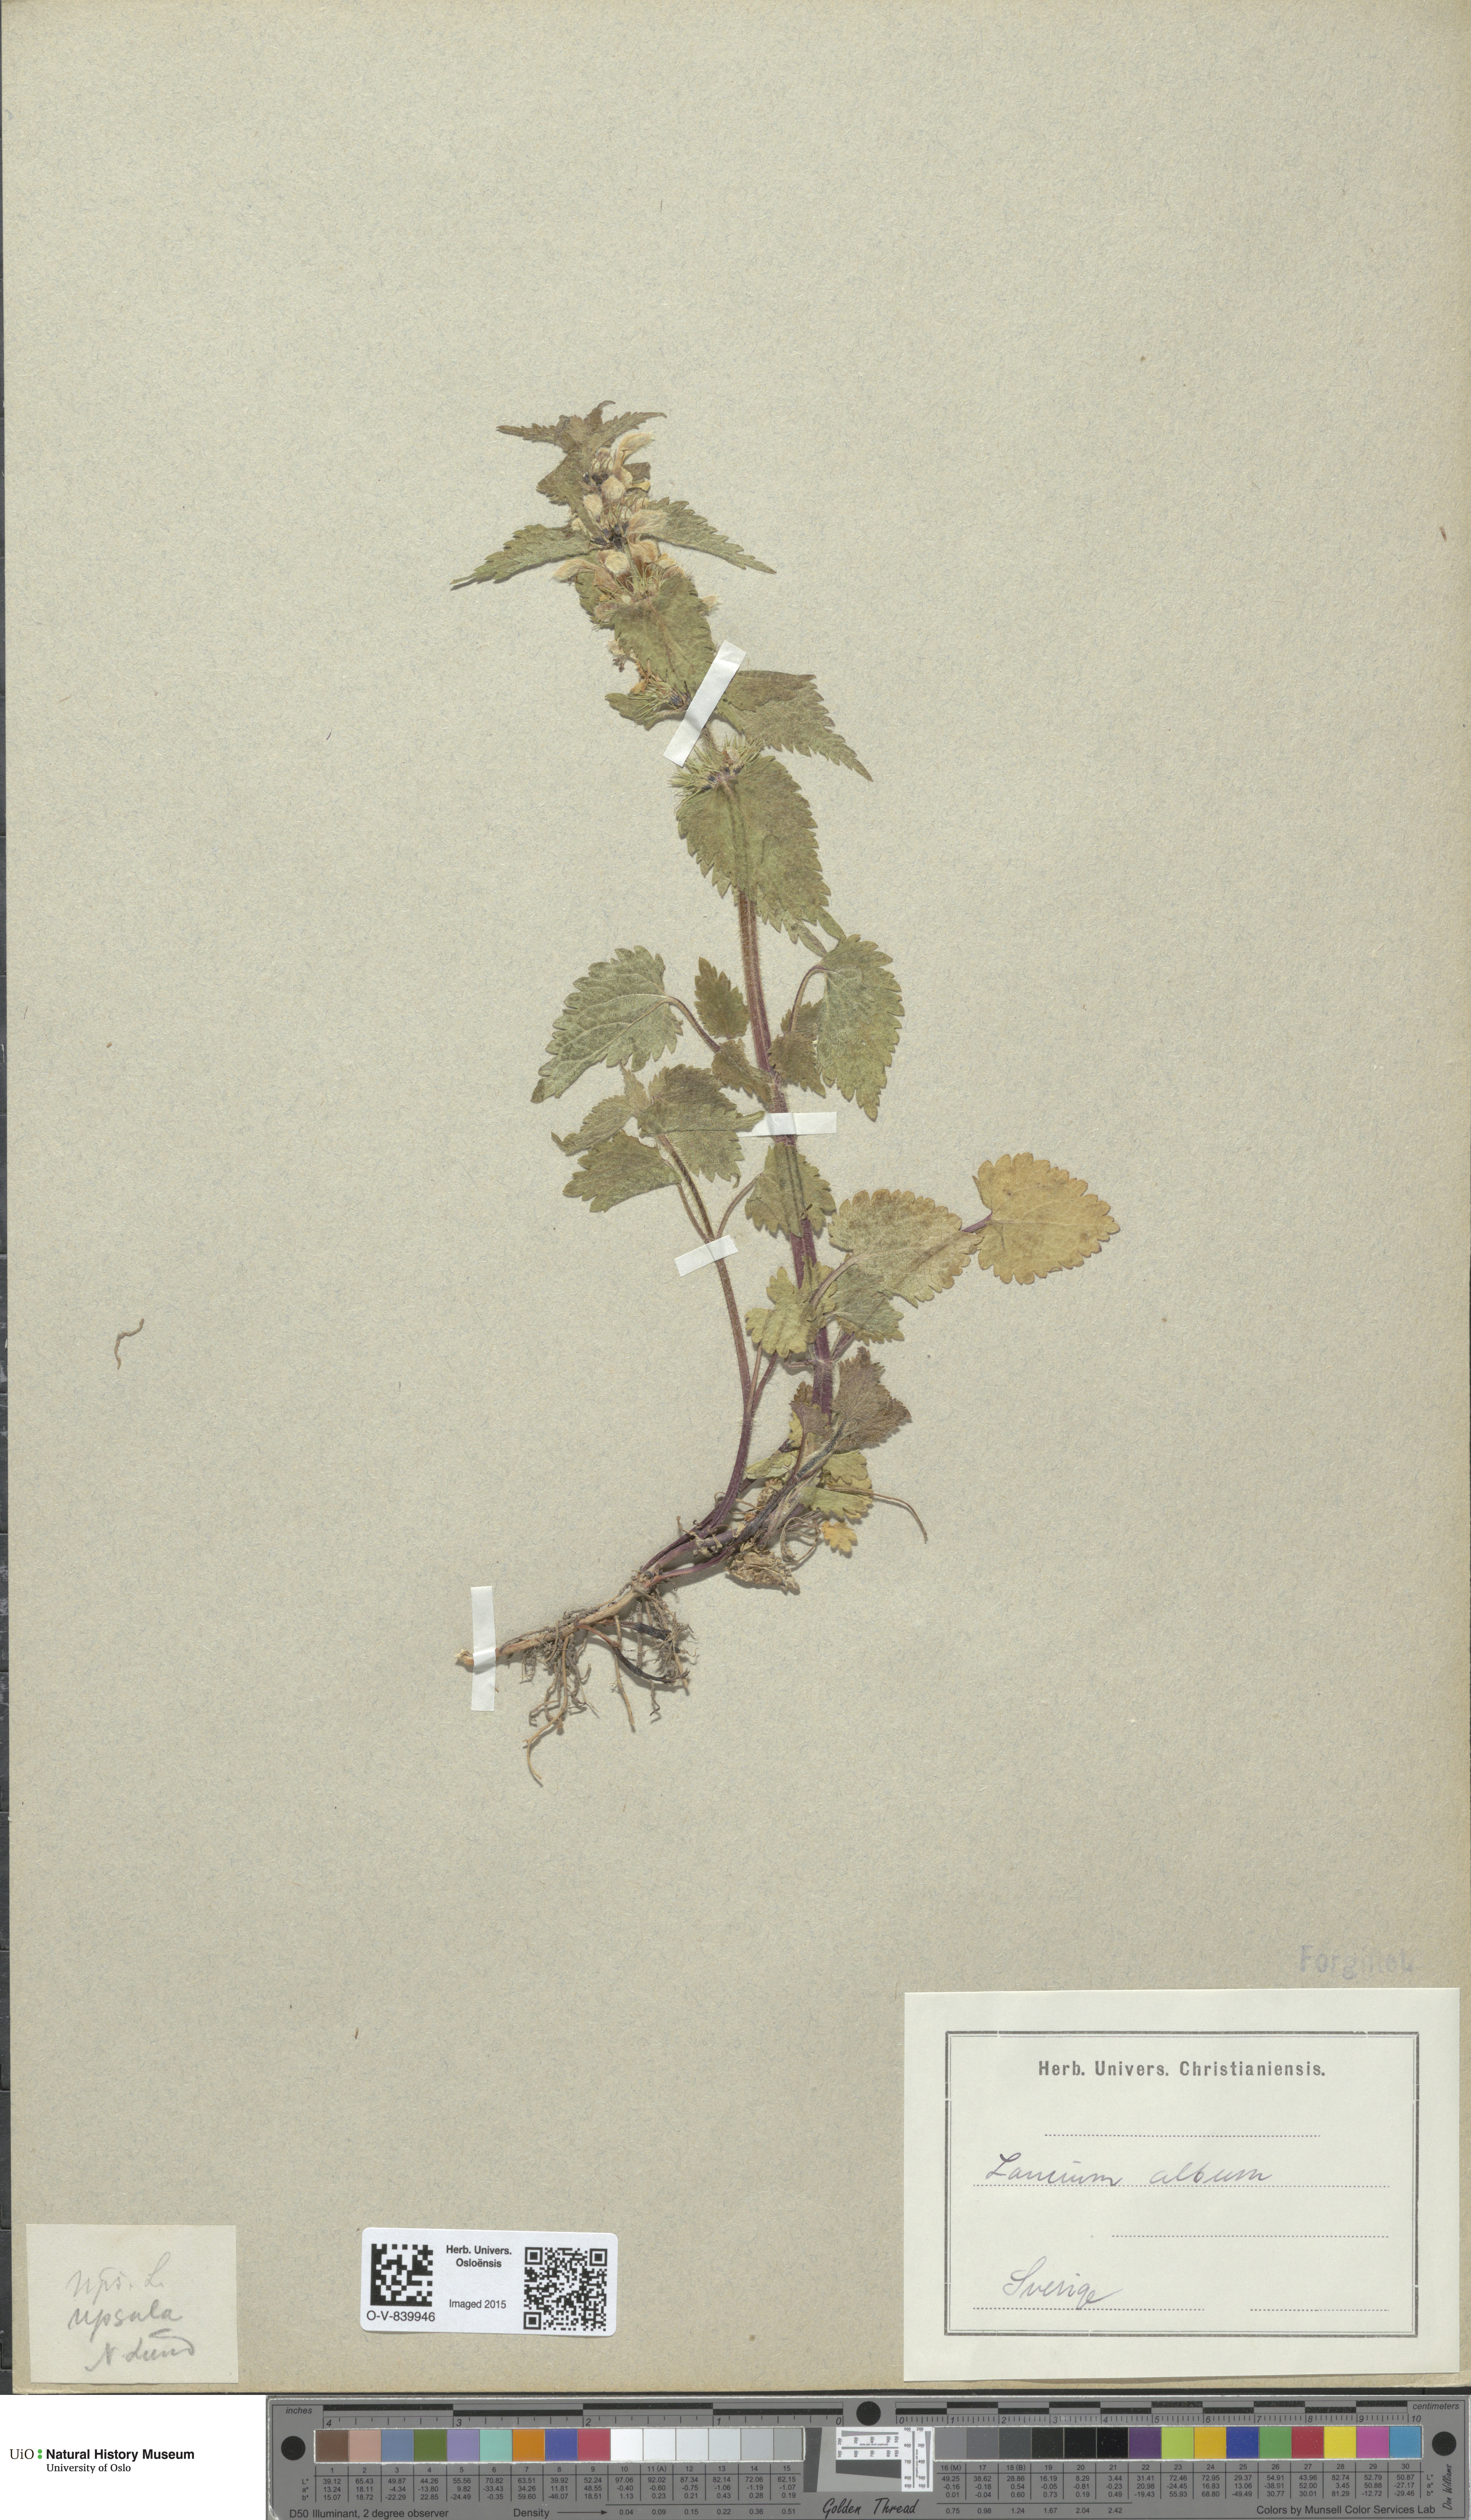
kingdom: Plantae
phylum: Tracheophyta
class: Magnoliopsida
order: Lamiales
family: Lamiaceae
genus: Lamium
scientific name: Lamium album
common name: White dead-nettle
